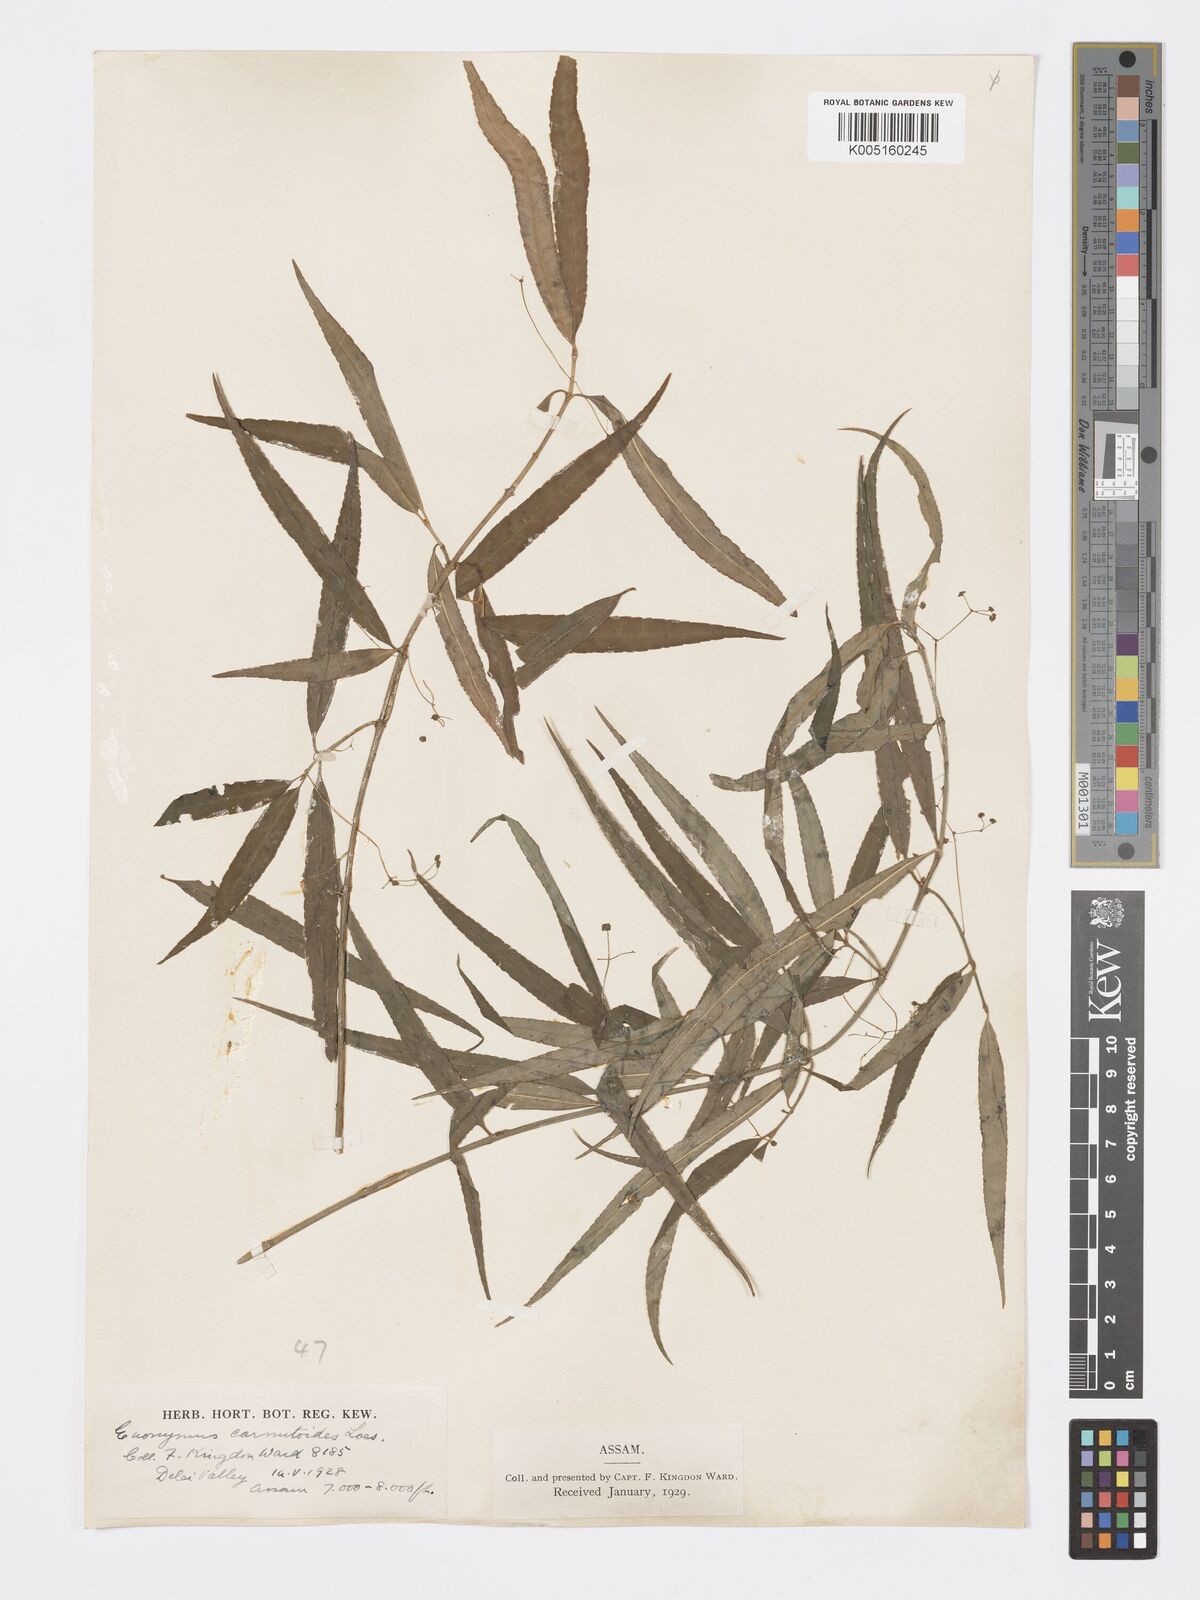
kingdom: Plantae
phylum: Tracheophyta
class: Magnoliopsida
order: Celastrales
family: Celastraceae
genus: Euonymus
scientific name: Euonymus cornutus
